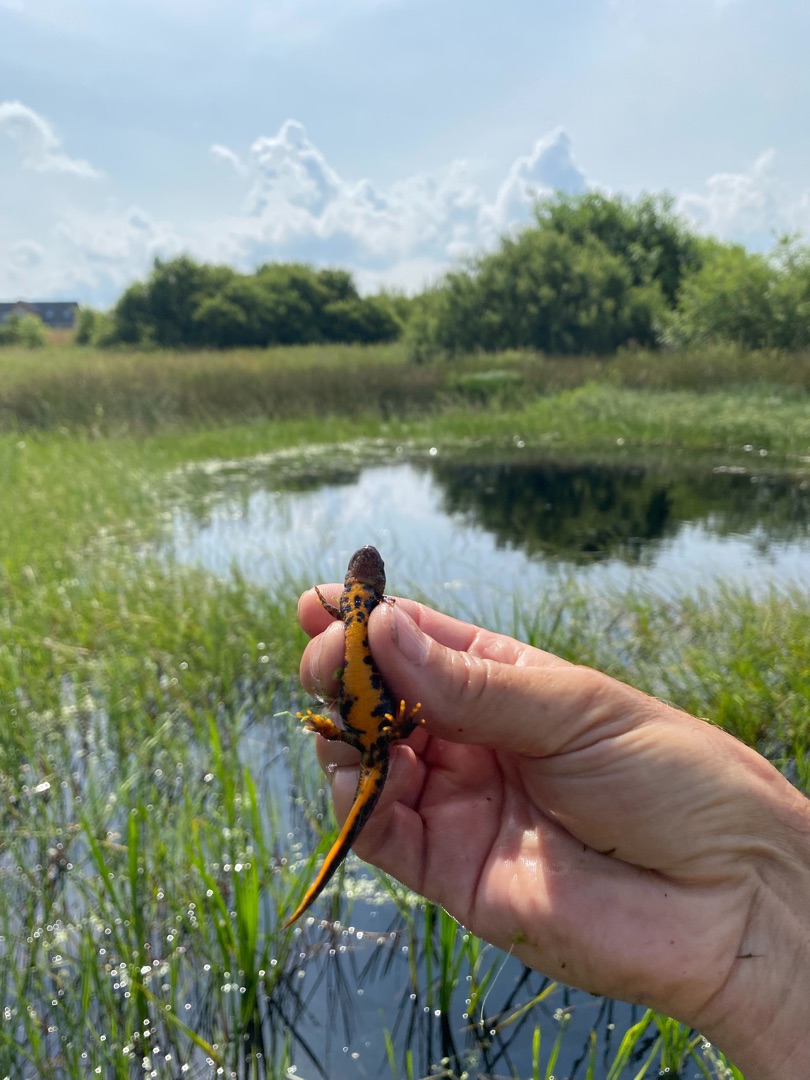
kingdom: Animalia
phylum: Chordata
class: Amphibia
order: Caudata
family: Salamandridae
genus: Triturus
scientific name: Triturus cristatus
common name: Stor vandsalamander
